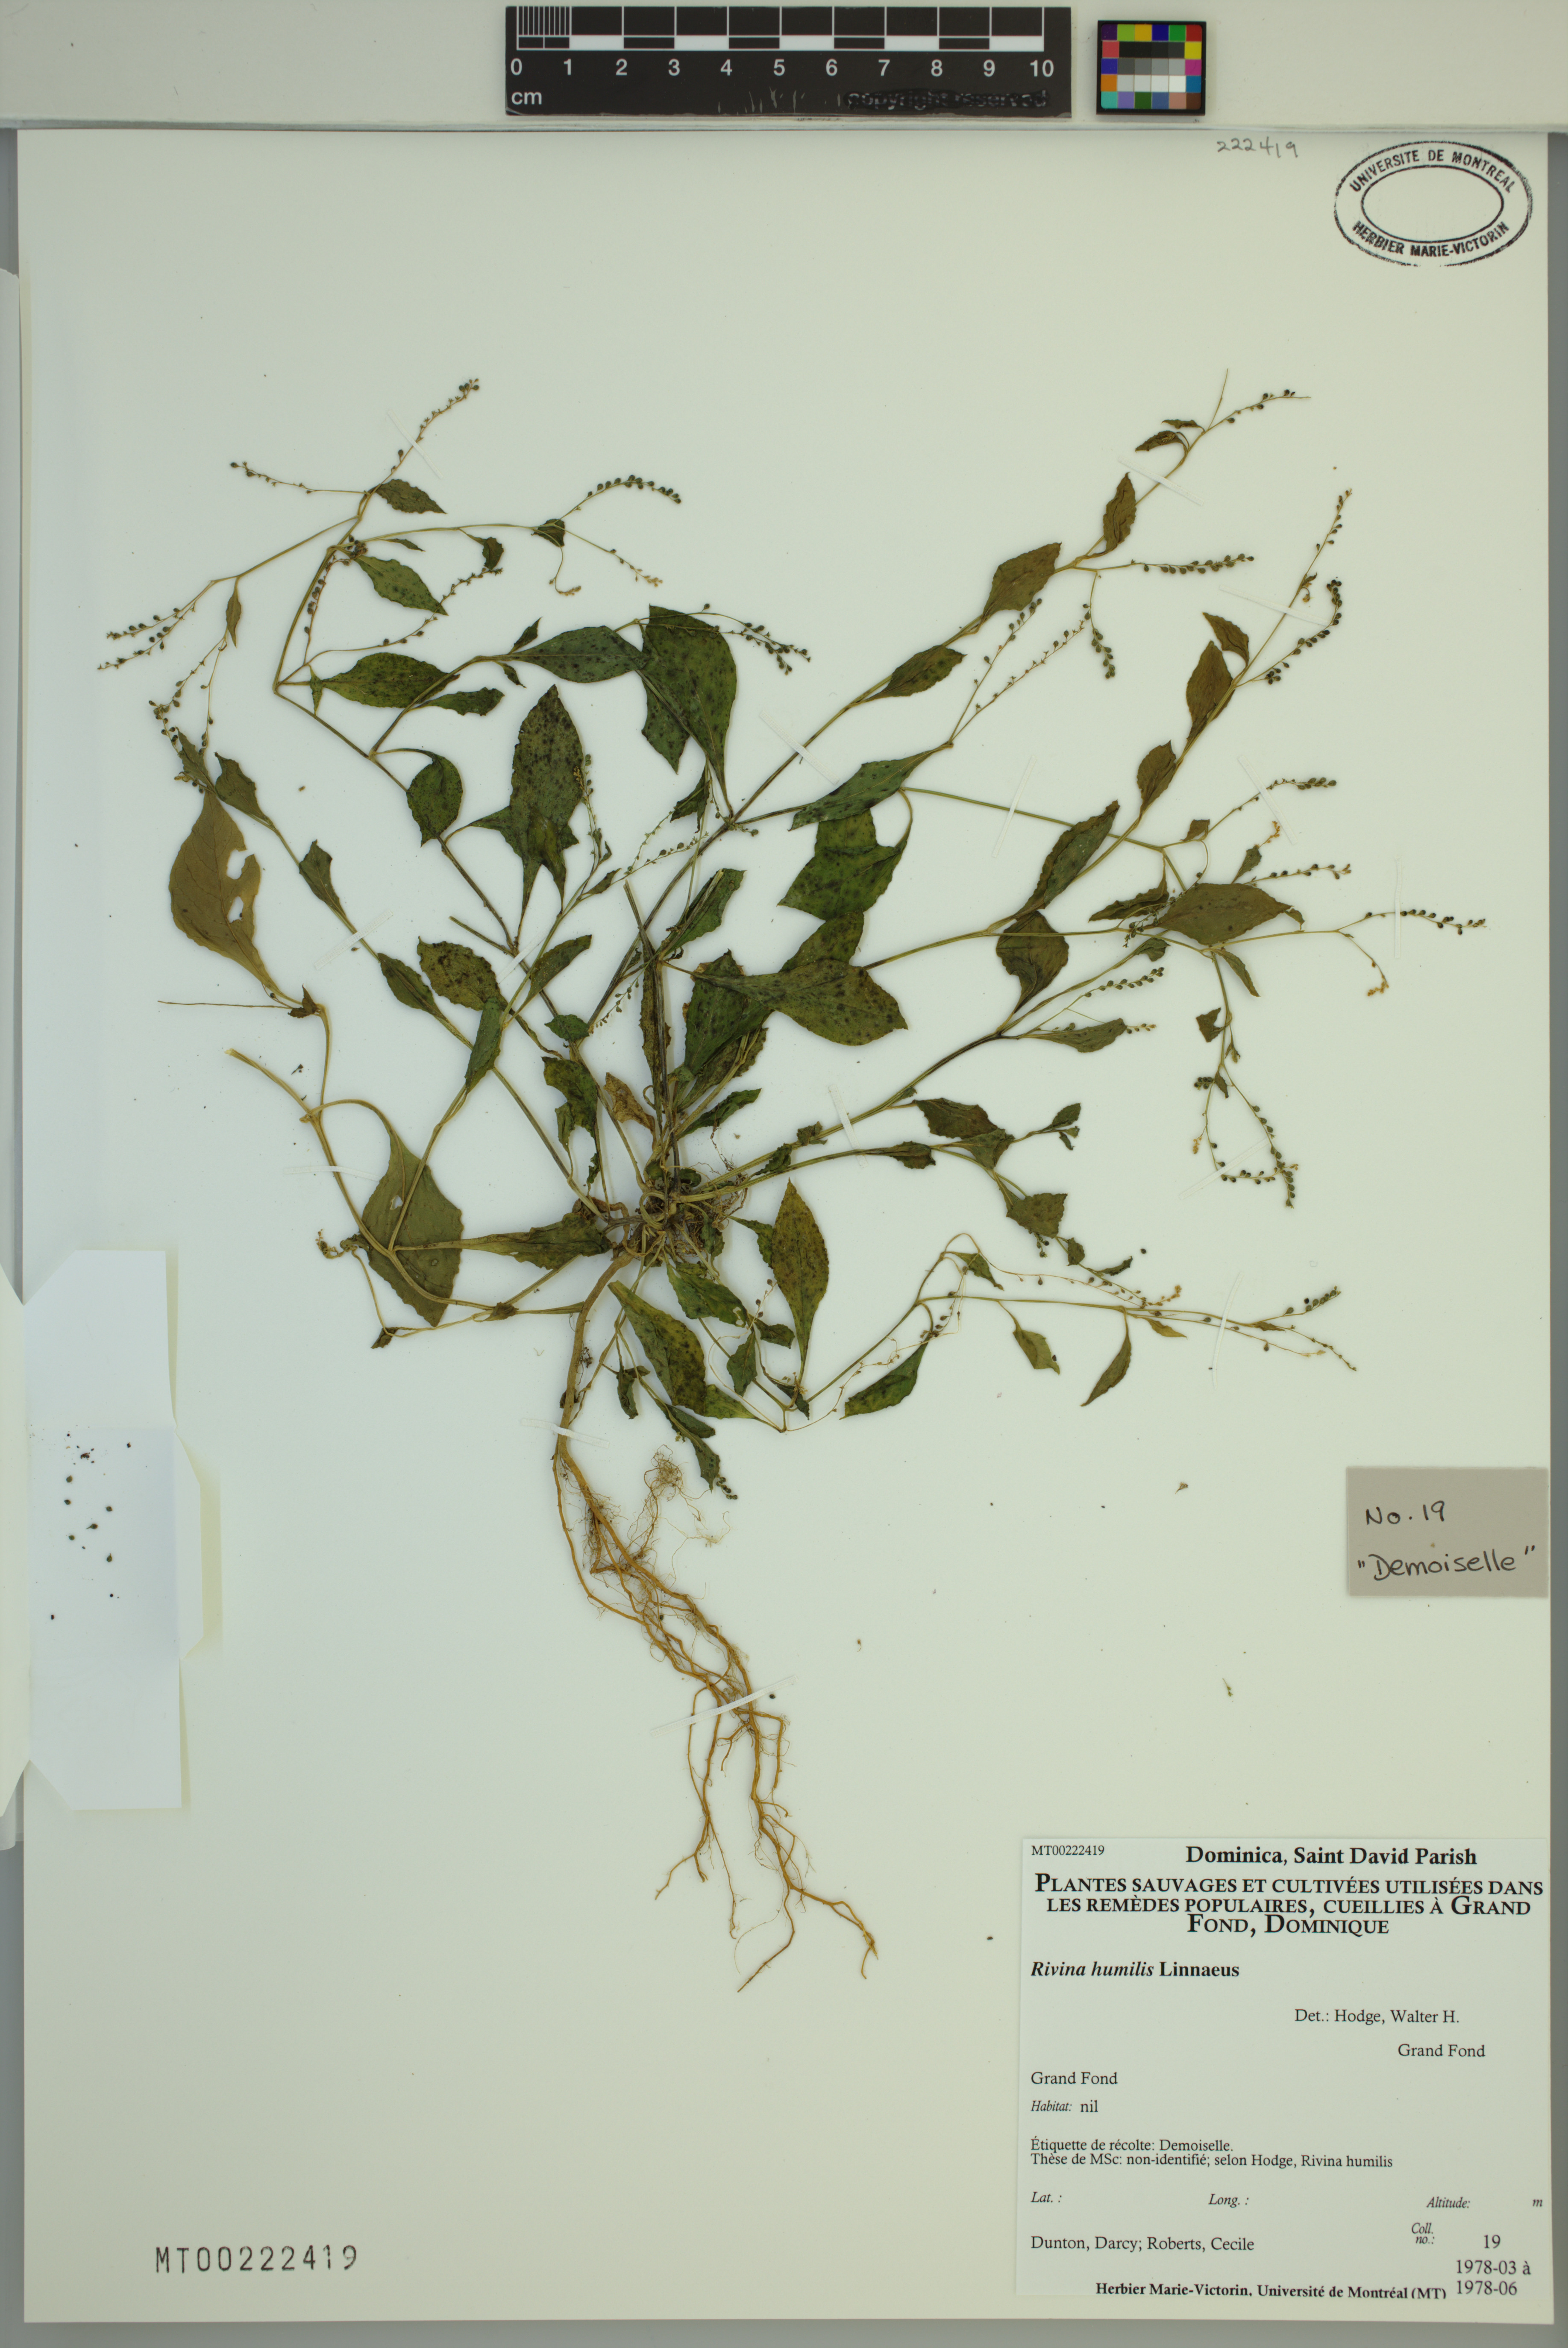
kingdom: Plantae
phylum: Tracheophyta
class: Magnoliopsida
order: Caryophyllales
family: Phytolaccaceae
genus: Rivina
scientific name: Rivina humilis
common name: Rougeplant
